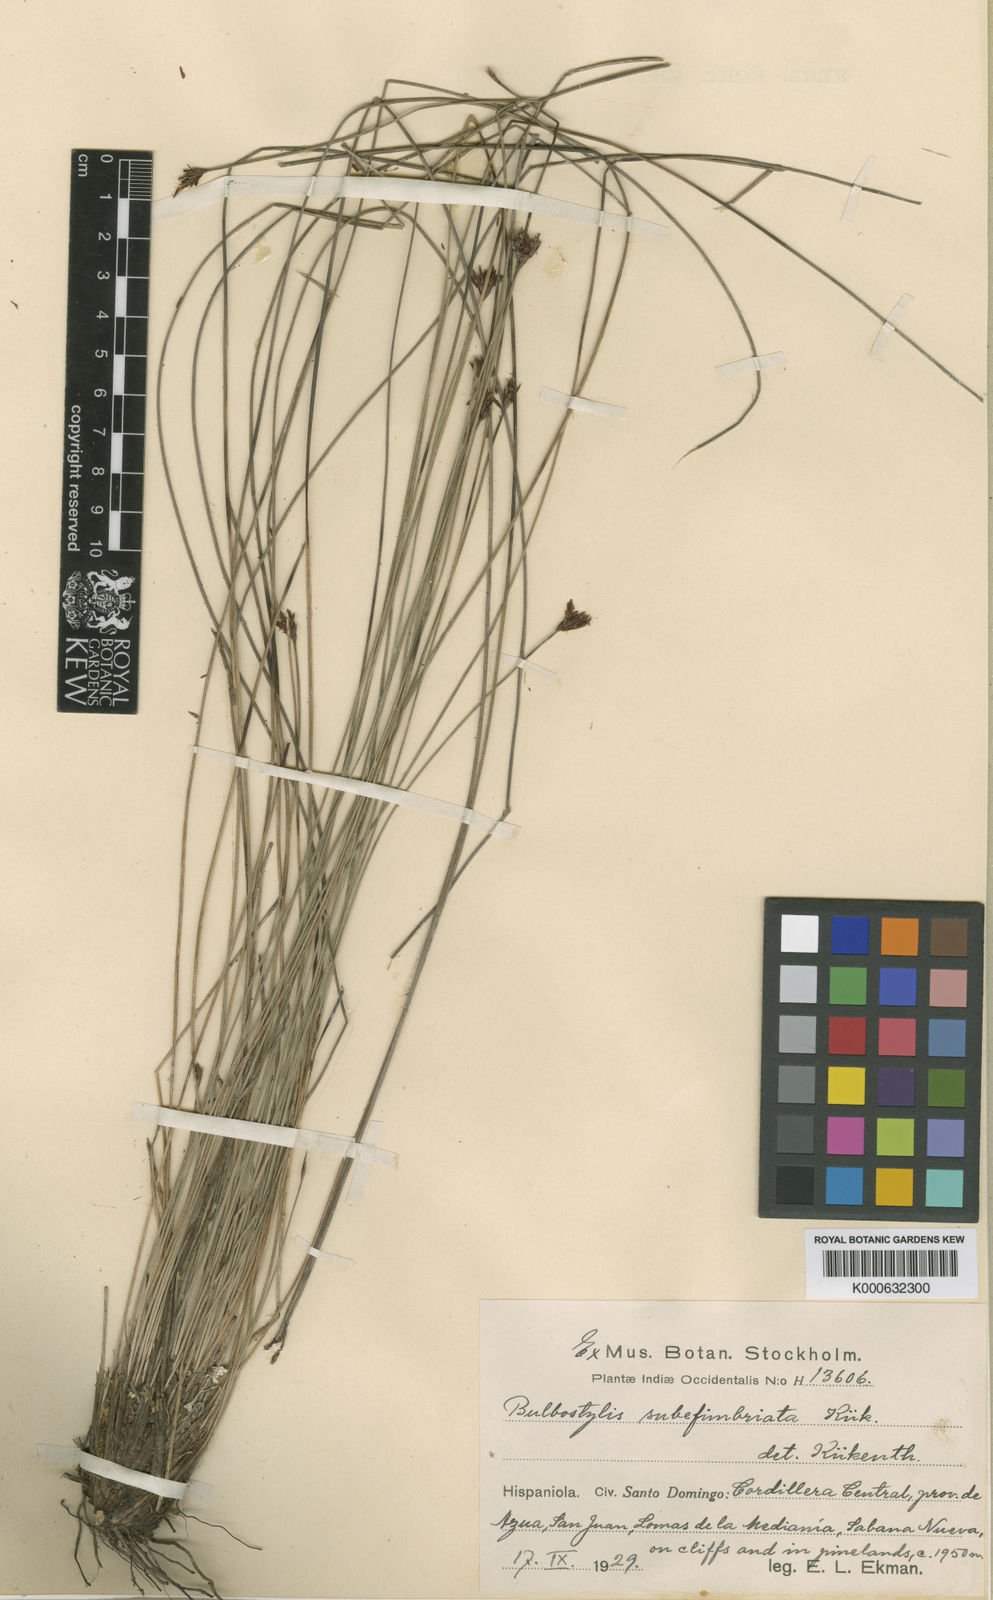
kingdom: Plantae
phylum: Tracheophyta
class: Liliopsida
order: Poales
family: Cyperaceae
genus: Bulbostylis
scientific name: Bulbostylis
